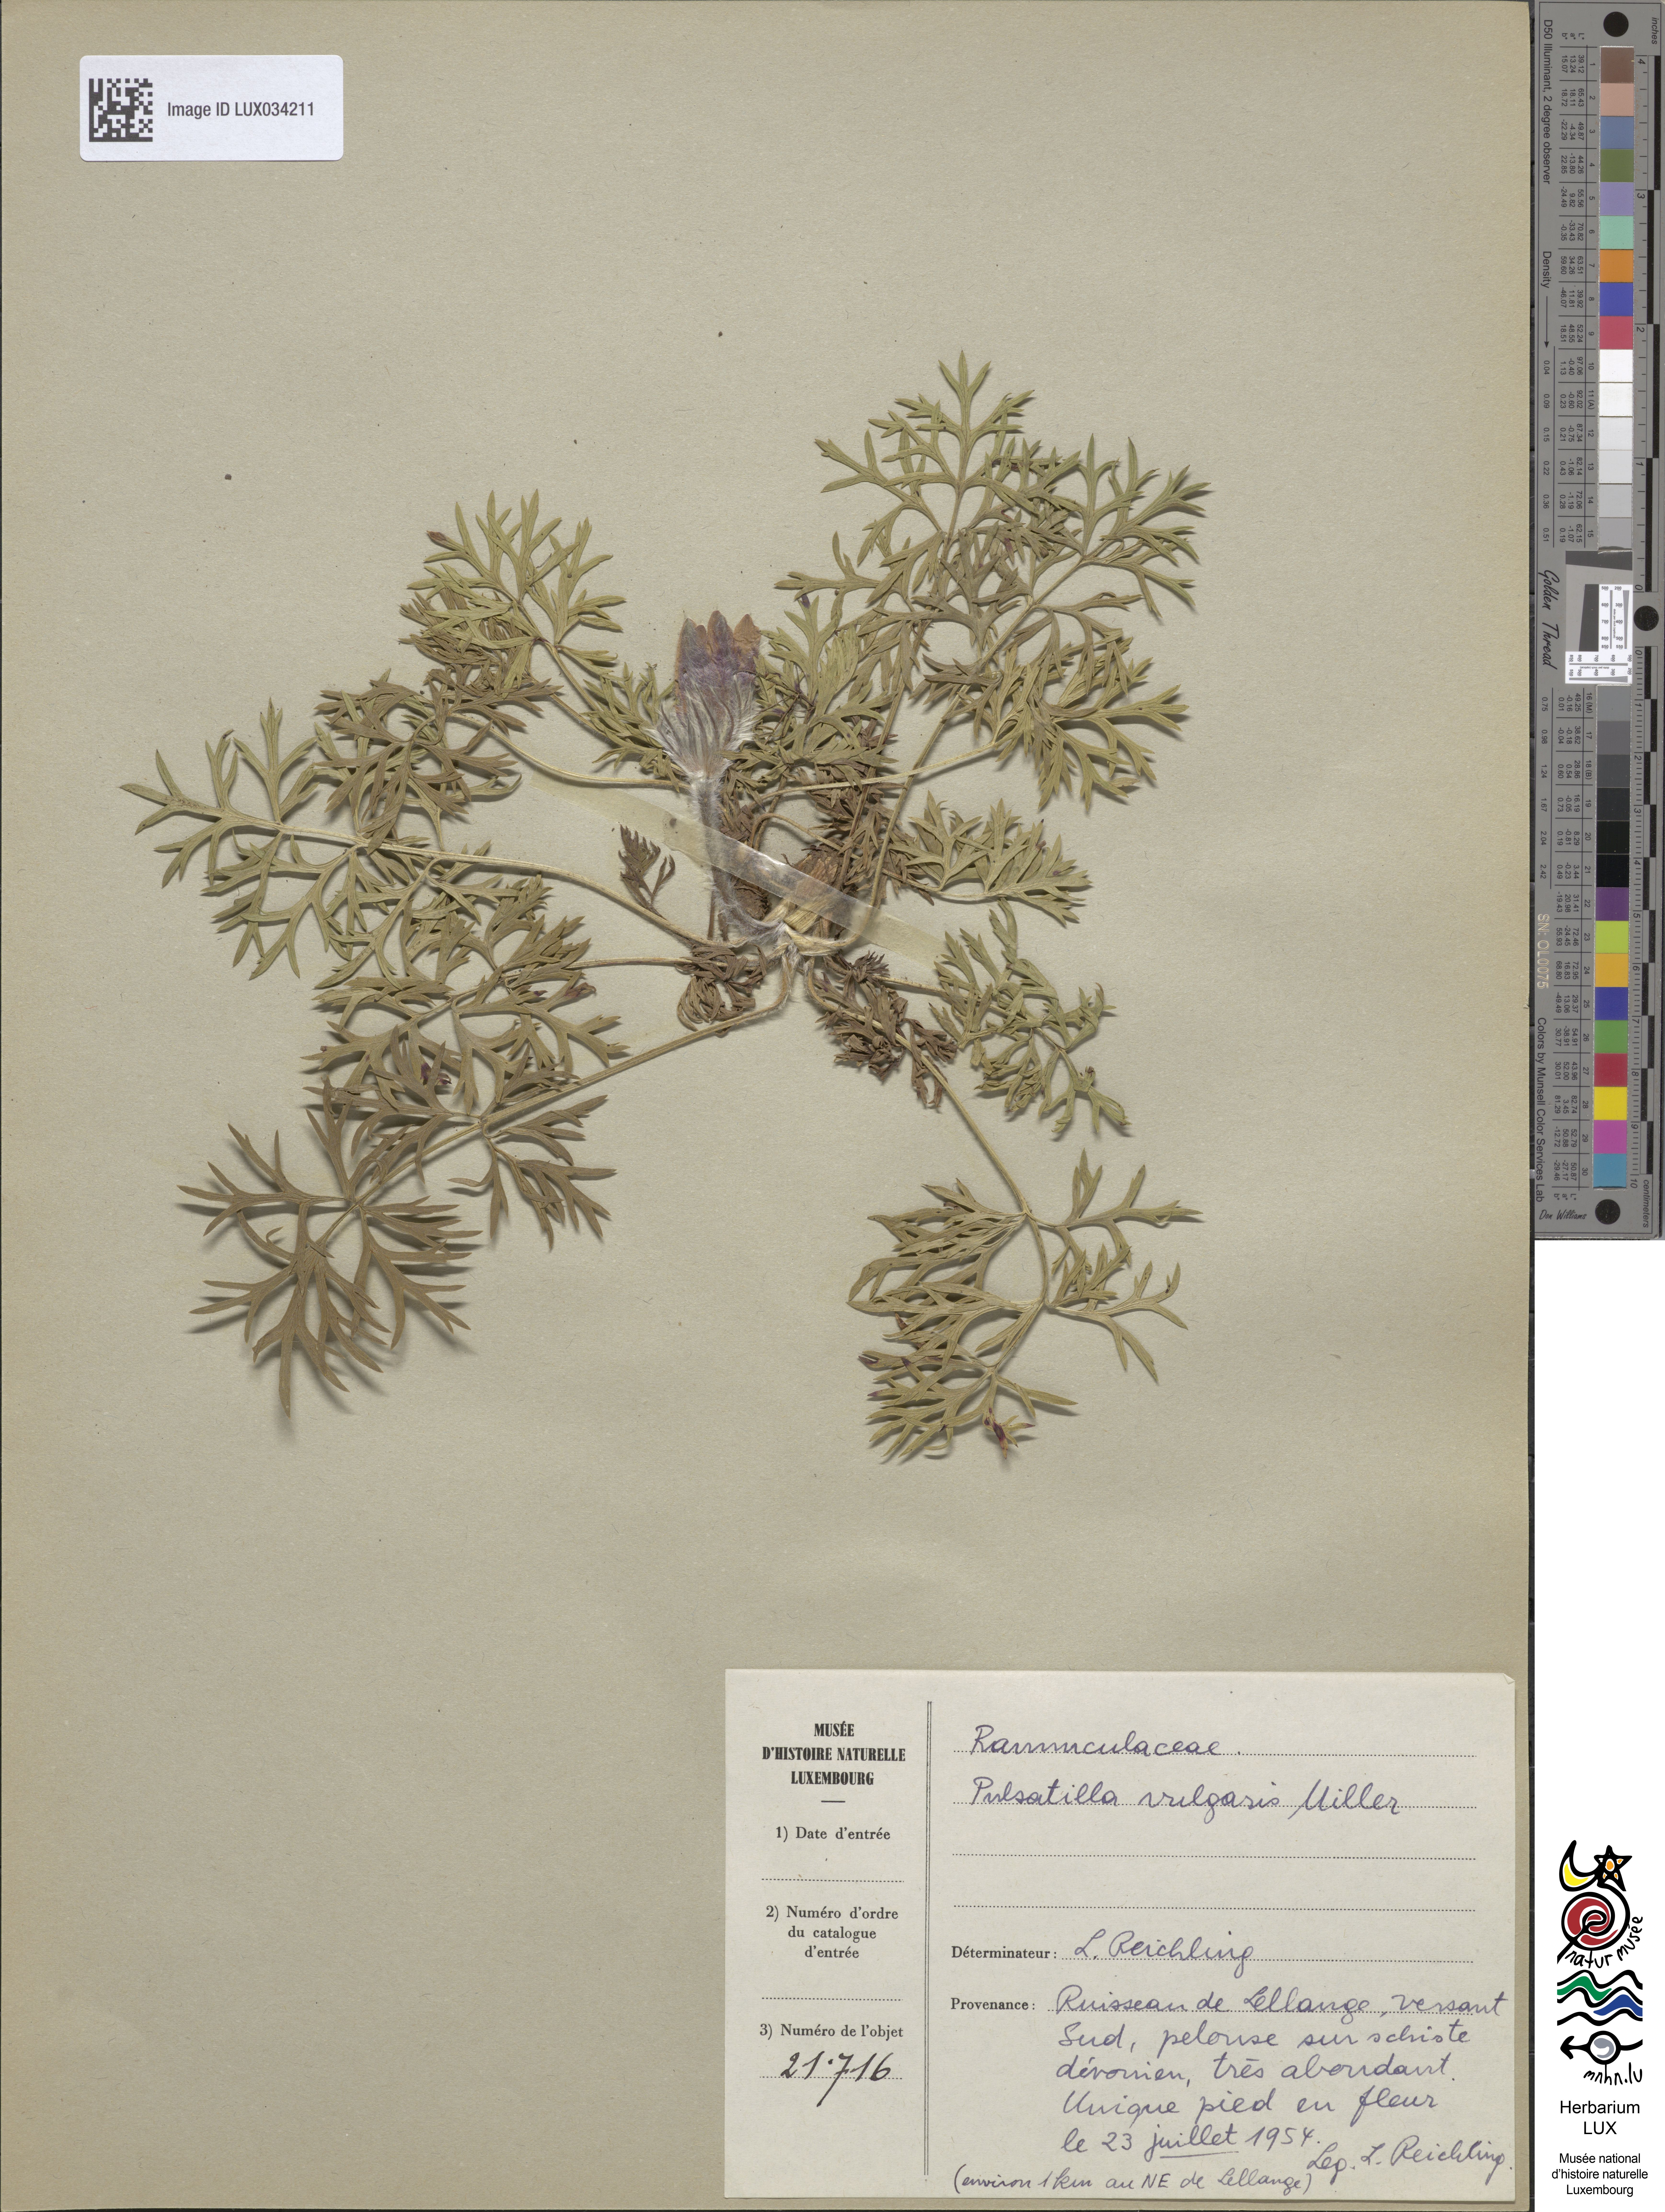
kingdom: Plantae
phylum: Tracheophyta
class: Magnoliopsida
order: Ranunculales
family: Ranunculaceae
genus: Pulsatilla
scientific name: Pulsatilla vulgaris
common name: Pasqueflower
